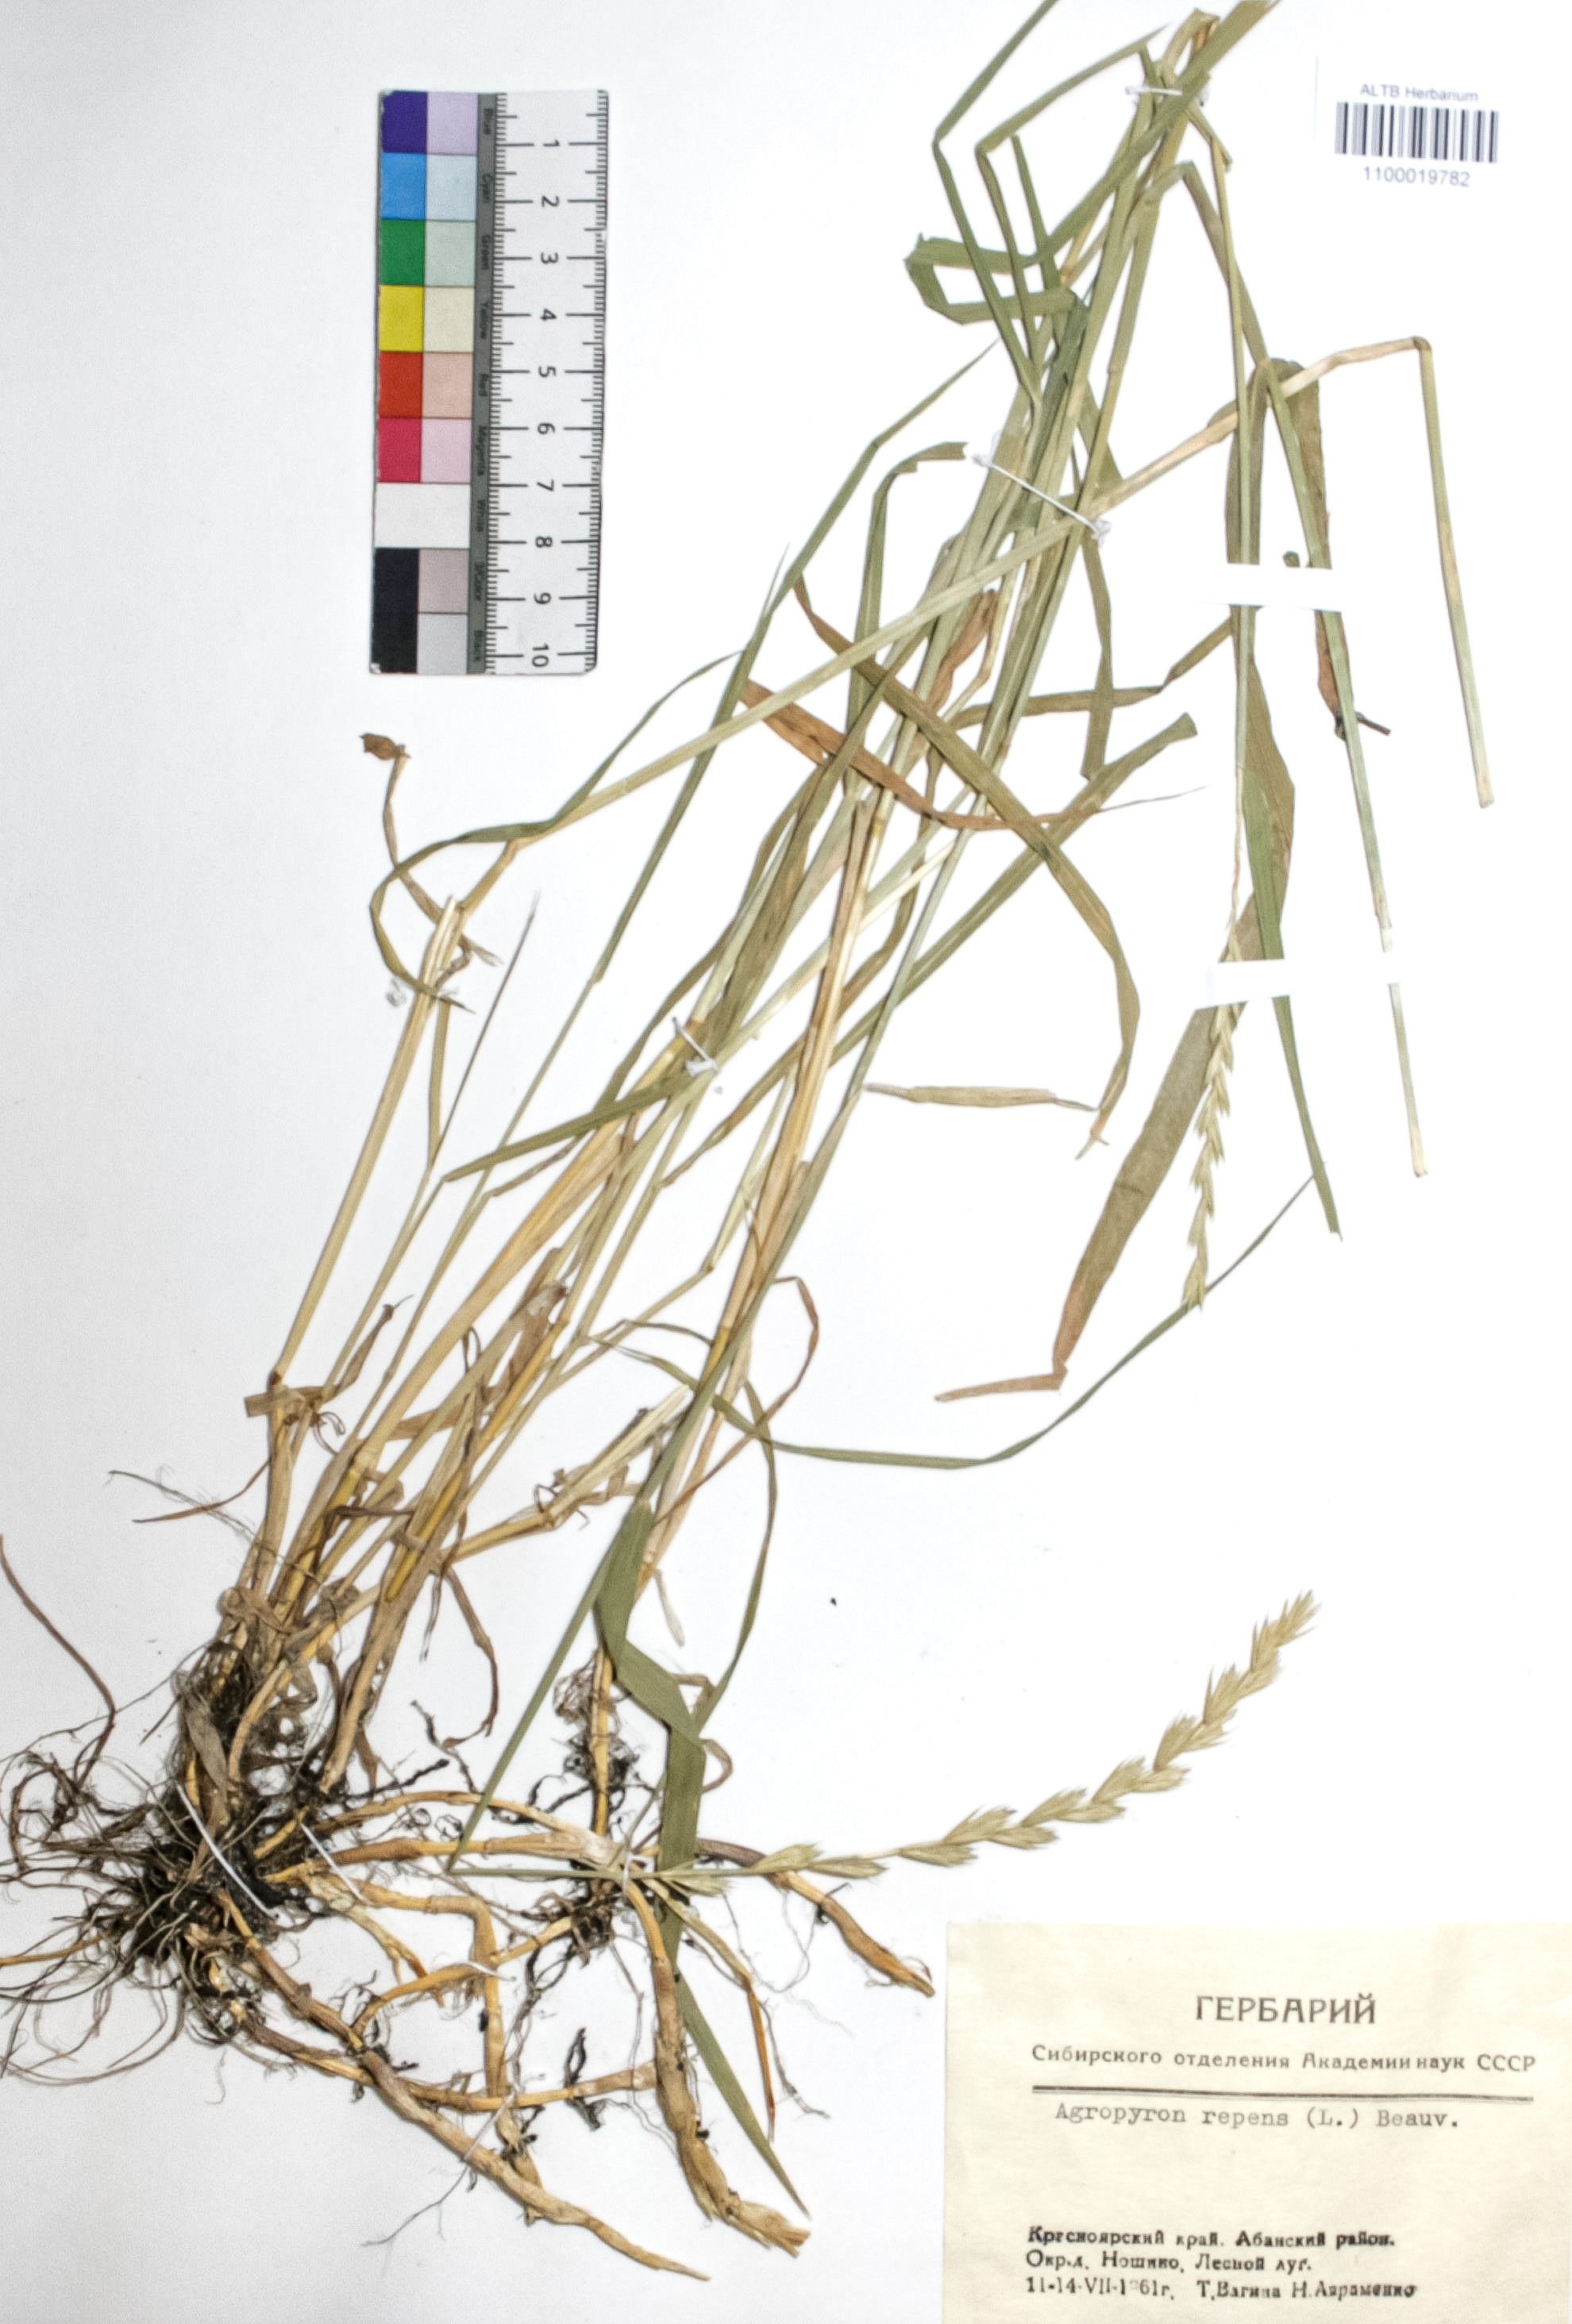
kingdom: Plantae
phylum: Tracheophyta
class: Liliopsida
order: Poales
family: Poaceae
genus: Elymus
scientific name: Elymus repens
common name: Quackgrass
